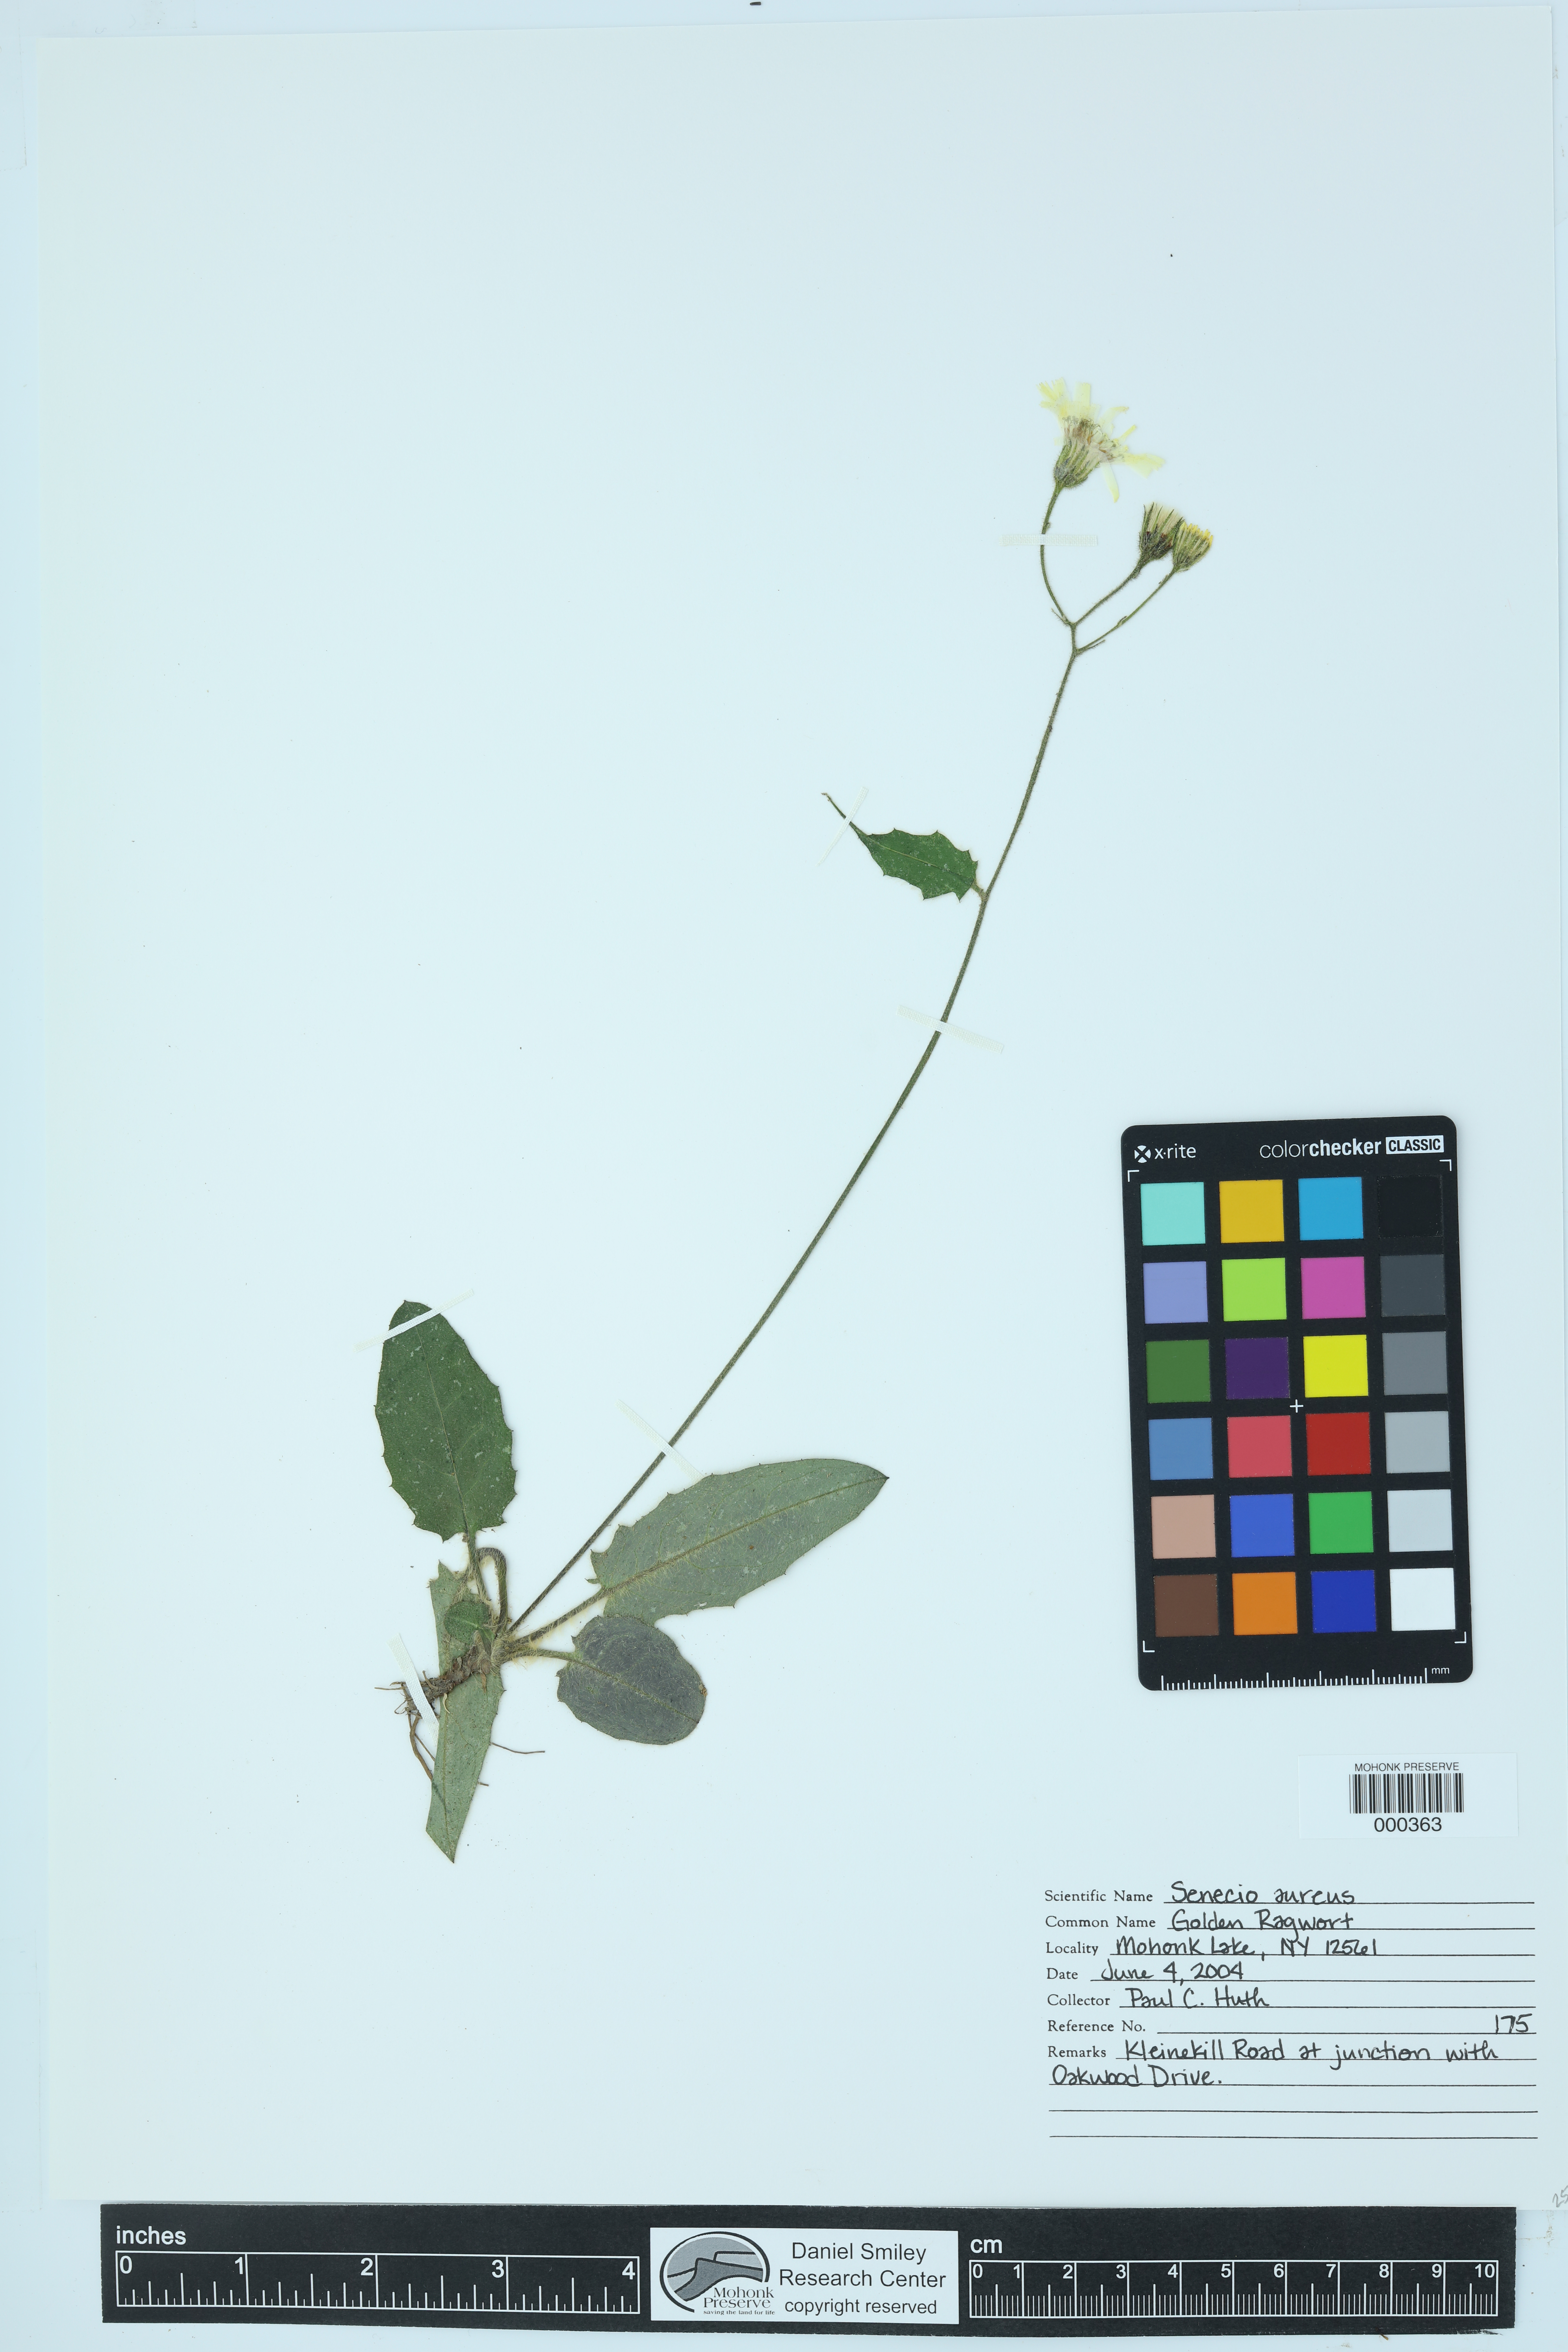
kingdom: Plantae
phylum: Tracheophyta
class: Magnoliopsida
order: Malpighiales
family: Euphorbiaceae
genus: Euphorbia
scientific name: Euphorbia maculata
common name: Spotted spurge
